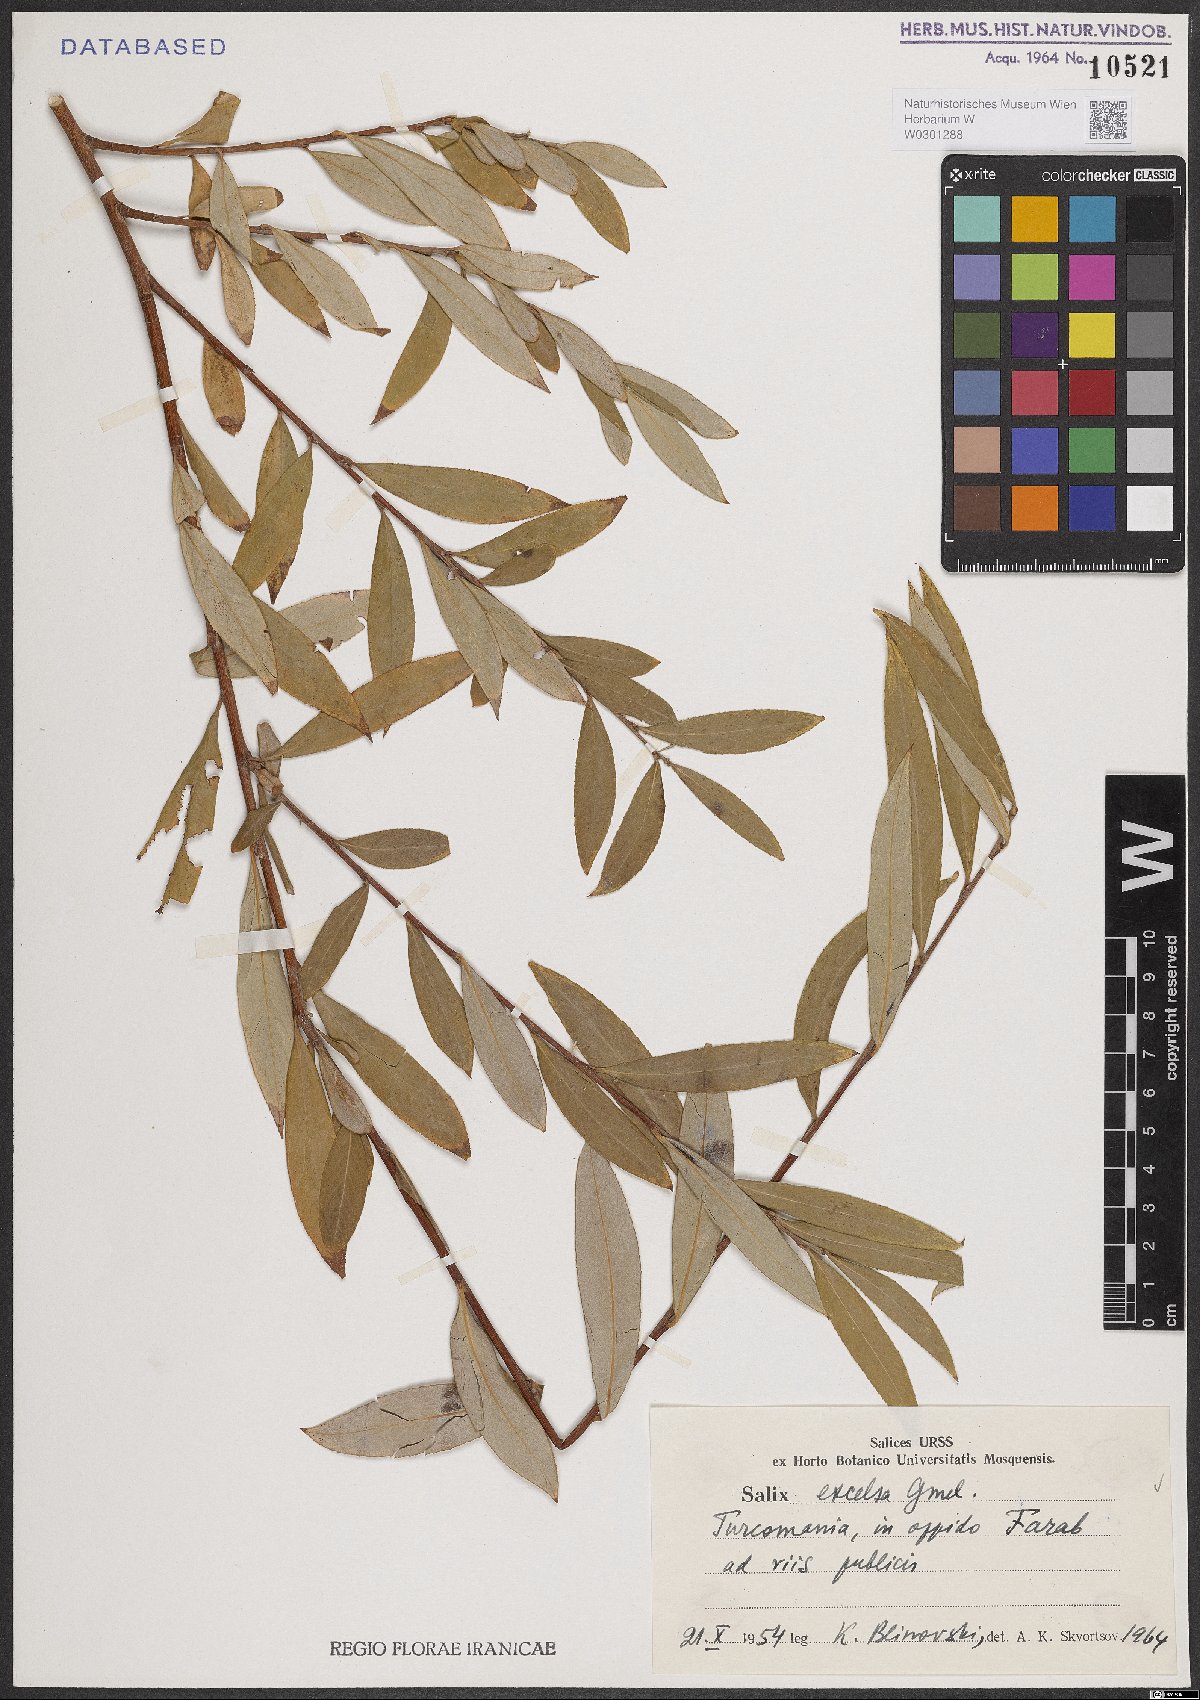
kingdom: Plantae
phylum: Tracheophyta
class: Magnoliopsida
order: Malpighiales
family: Salicaceae
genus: Salix
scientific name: Salix excelsa
